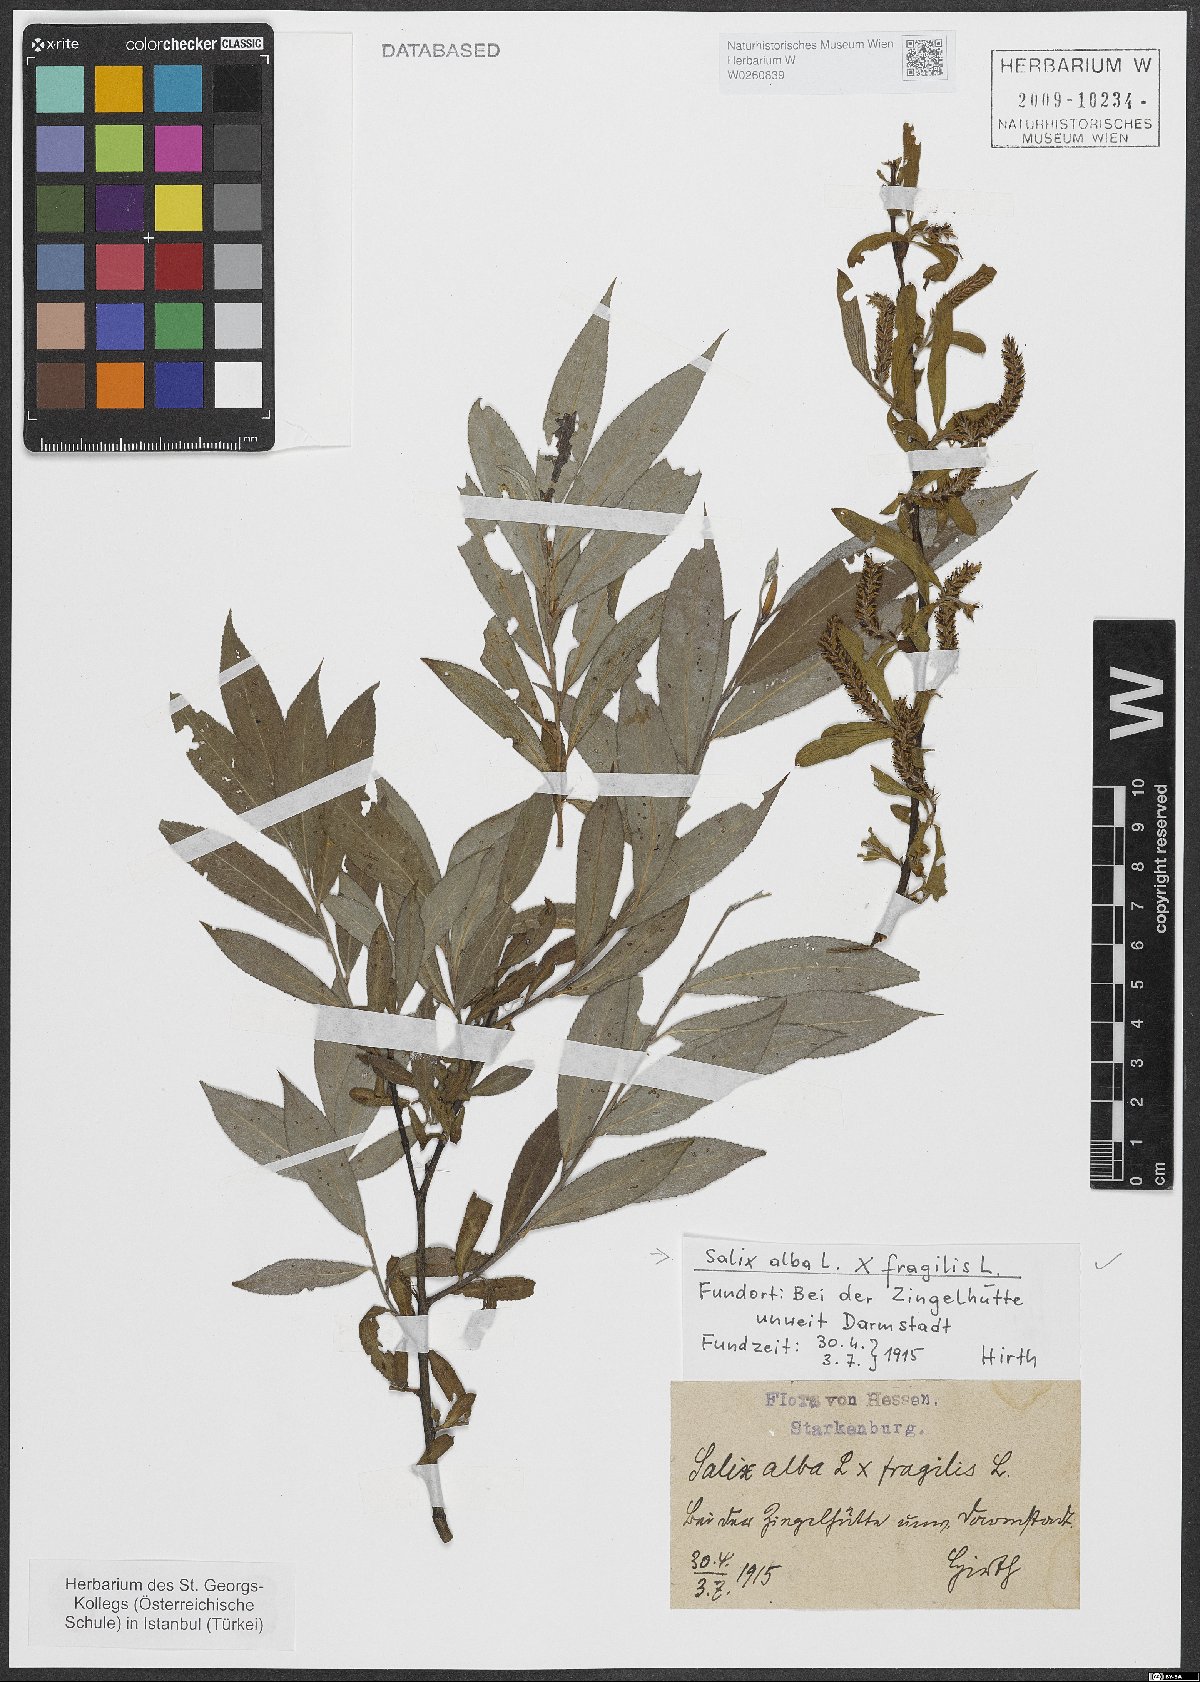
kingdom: Plantae
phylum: Tracheophyta
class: Magnoliopsida
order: Malpighiales
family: Salicaceae
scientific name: Salicaceae
